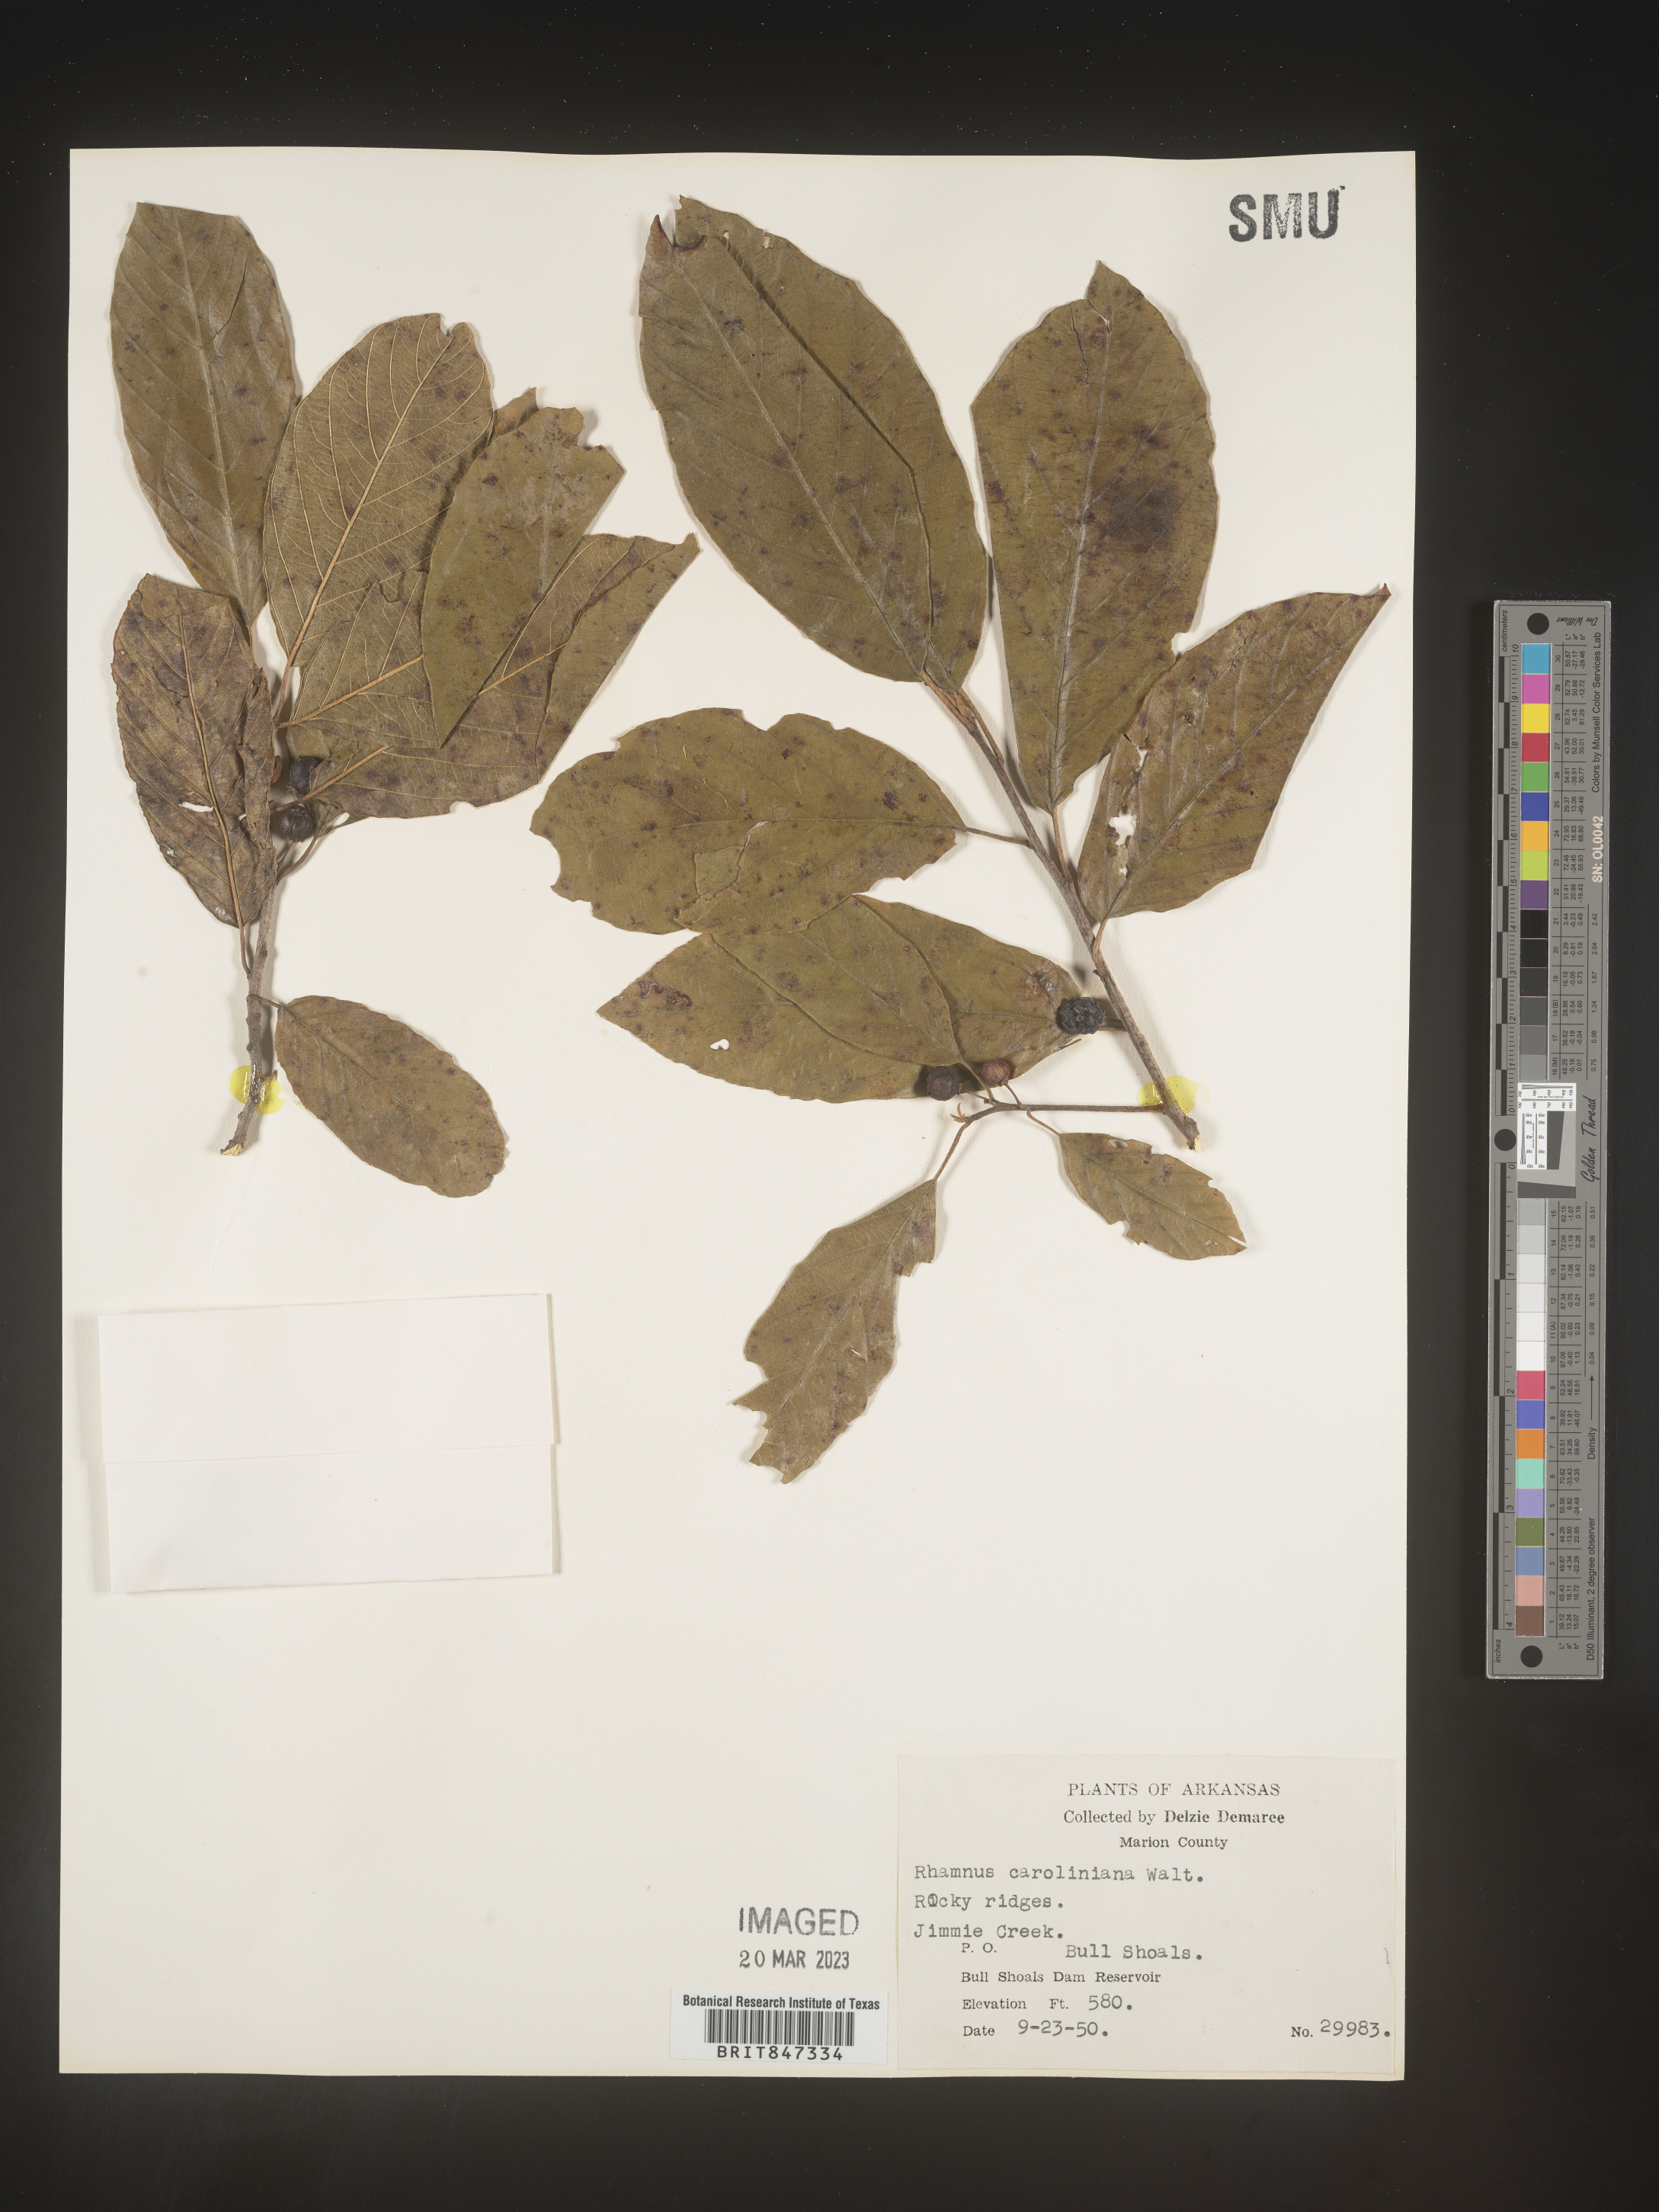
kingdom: Plantae
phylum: Tracheophyta
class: Magnoliopsida
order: Rosales
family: Rhamnaceae
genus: Frangula
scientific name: Frangula caroliniana
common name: Carolina buckthorn
